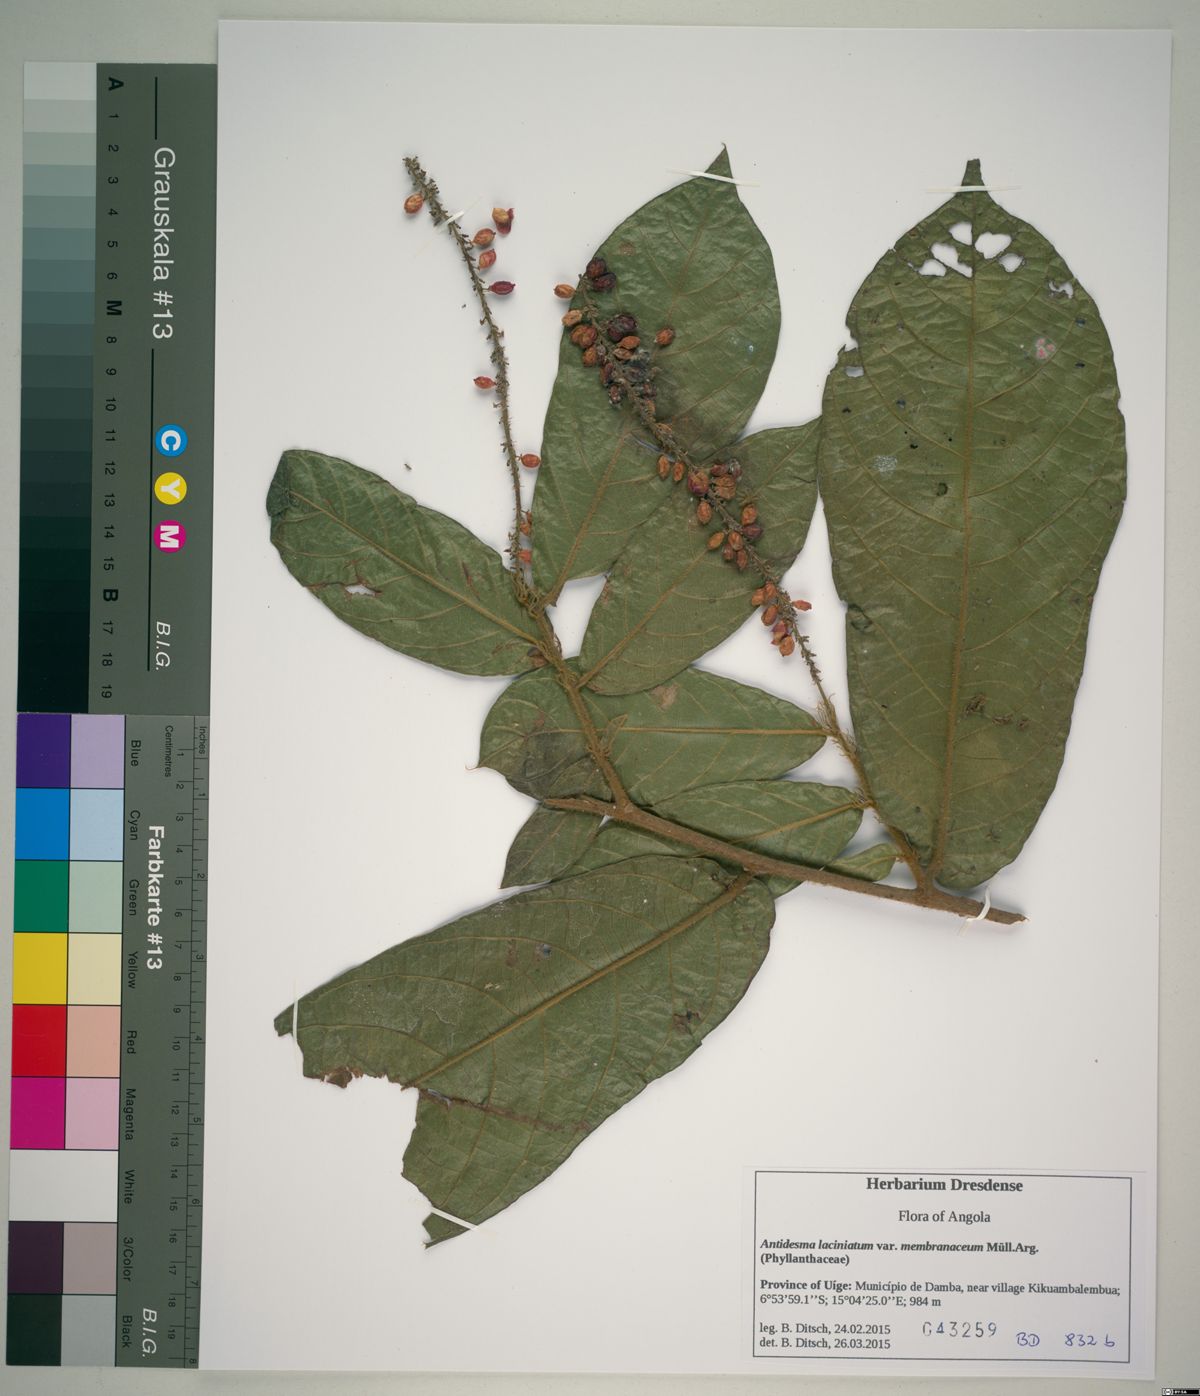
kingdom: Plantae
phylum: Tracheophyta
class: Magnoliopsida
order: Malpighiales
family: Phyllanthaceae
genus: Antidesma
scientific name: Antidesma laciniatum
